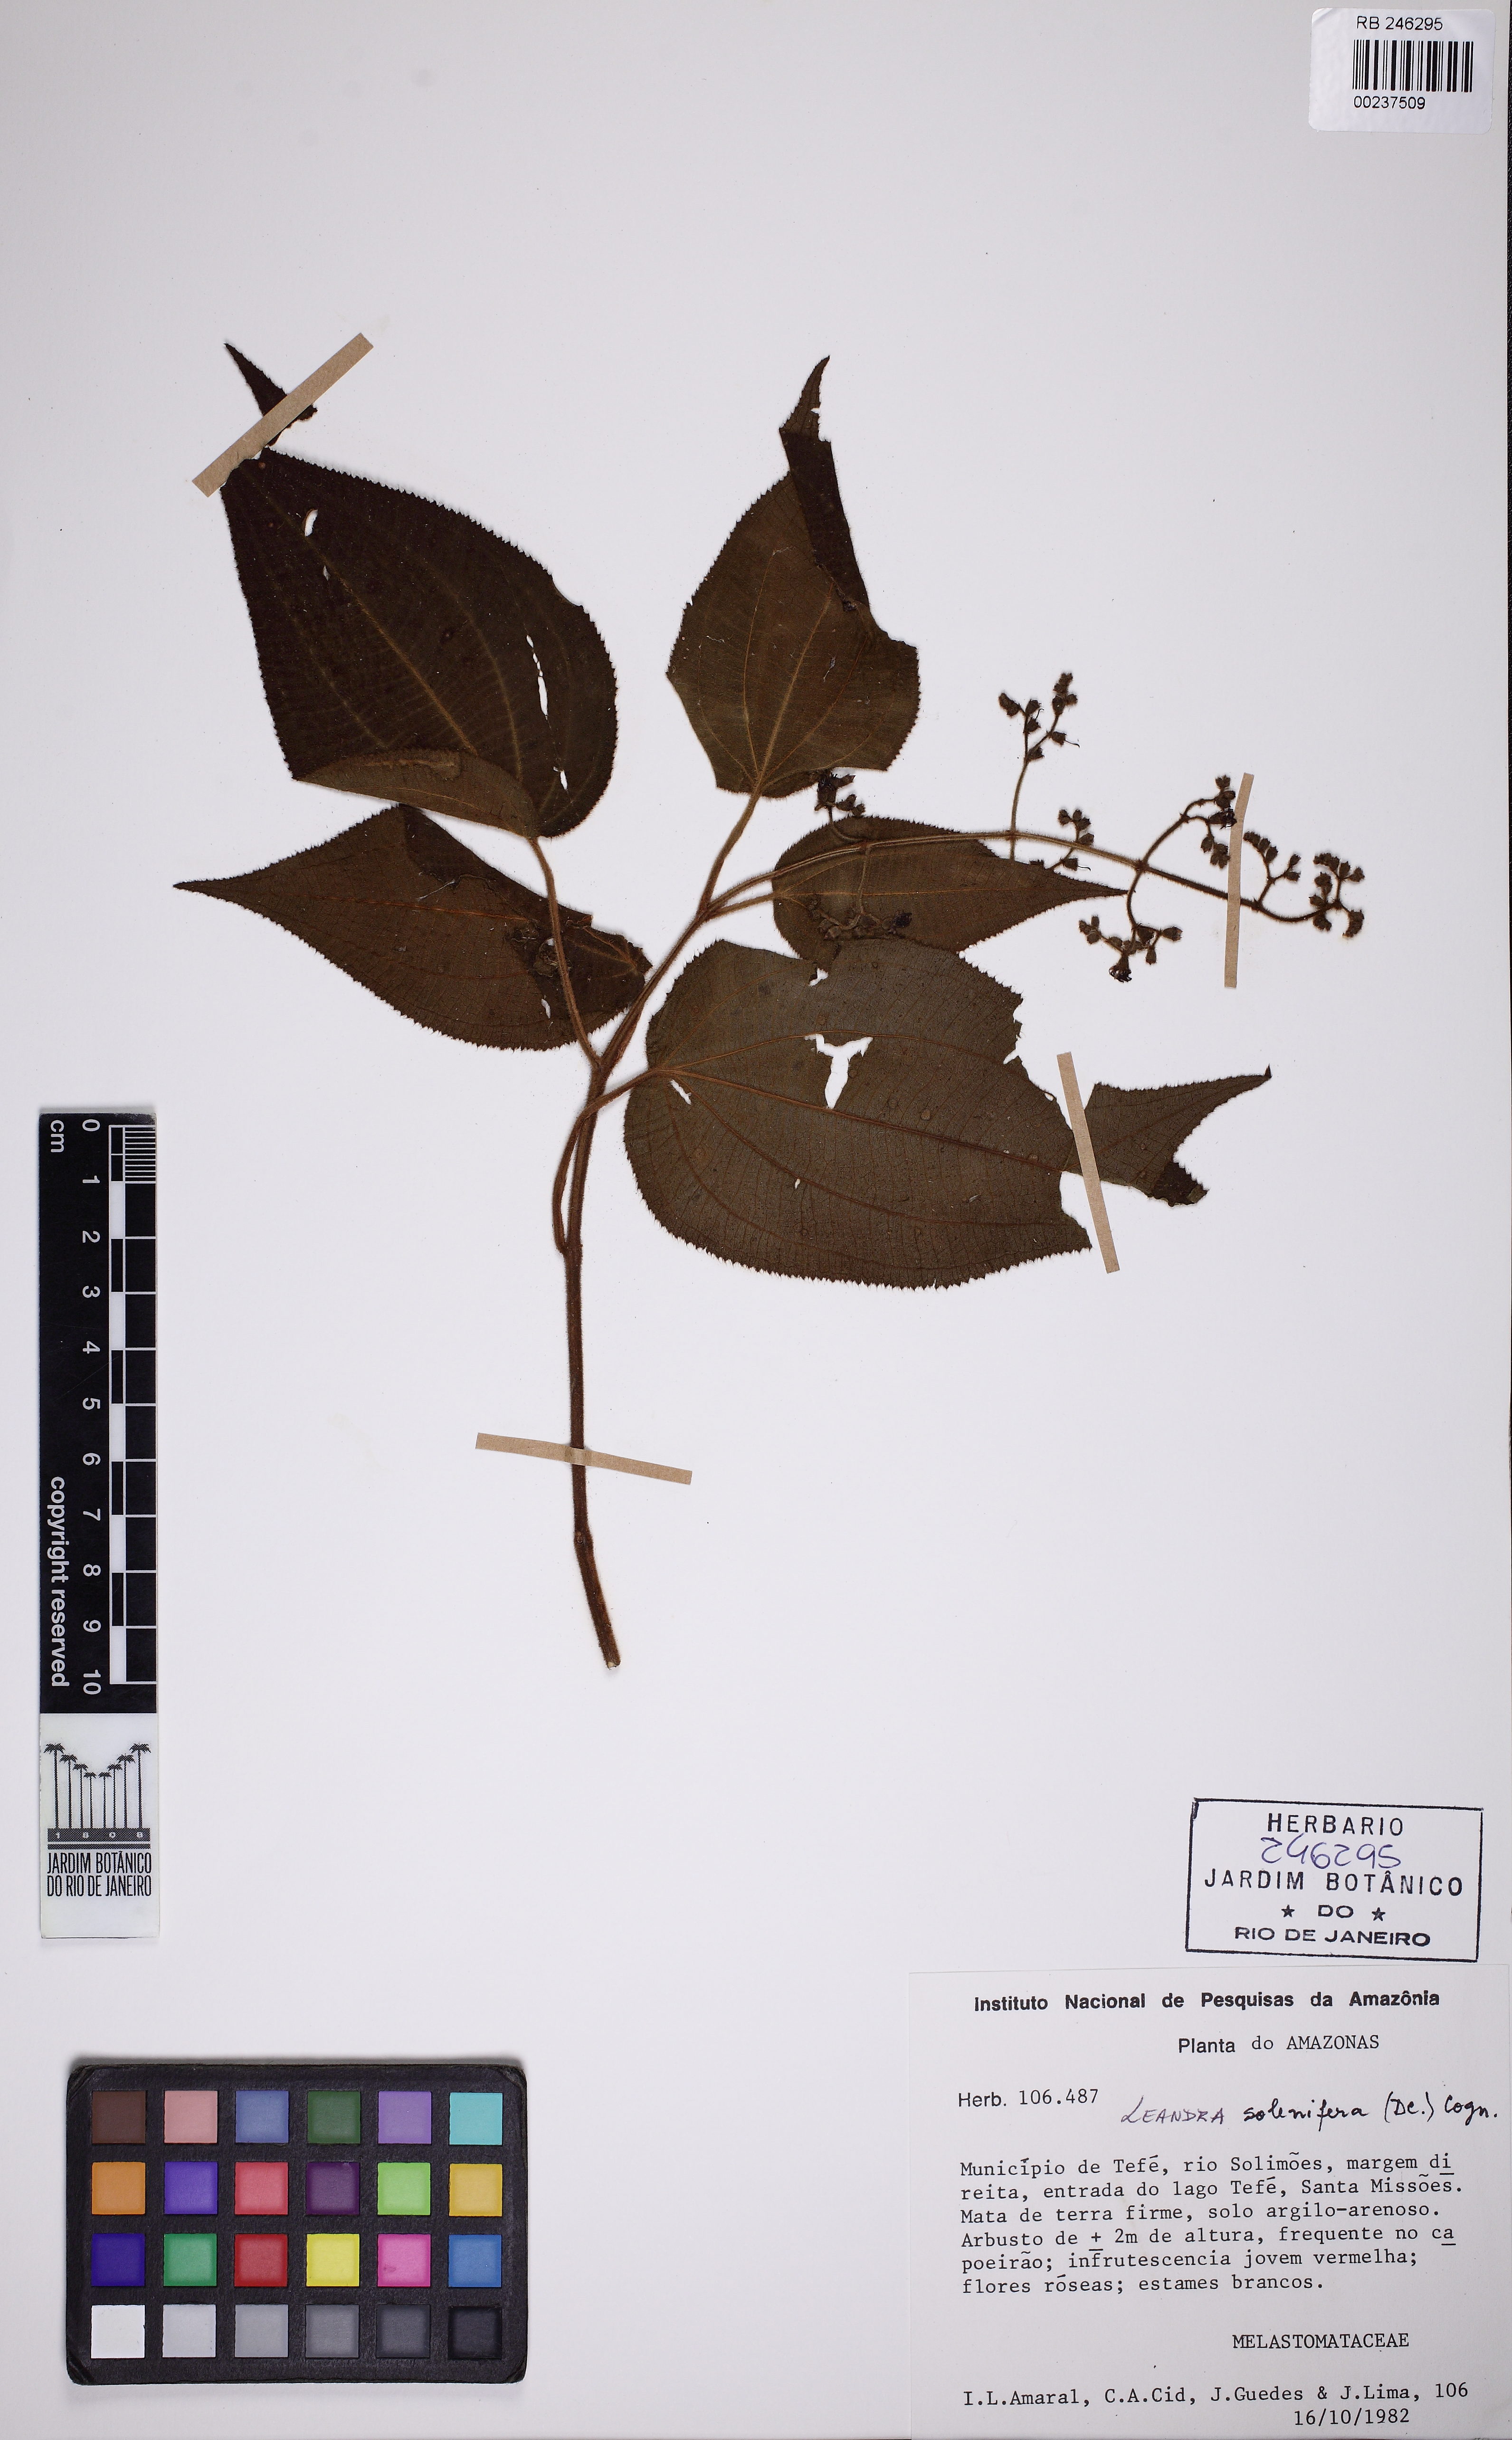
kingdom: Plantae
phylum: Tracheophyta
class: Magnoliopsida
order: Myrtales
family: Melastomataceae
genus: Miconia
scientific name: Miconia solenifera
